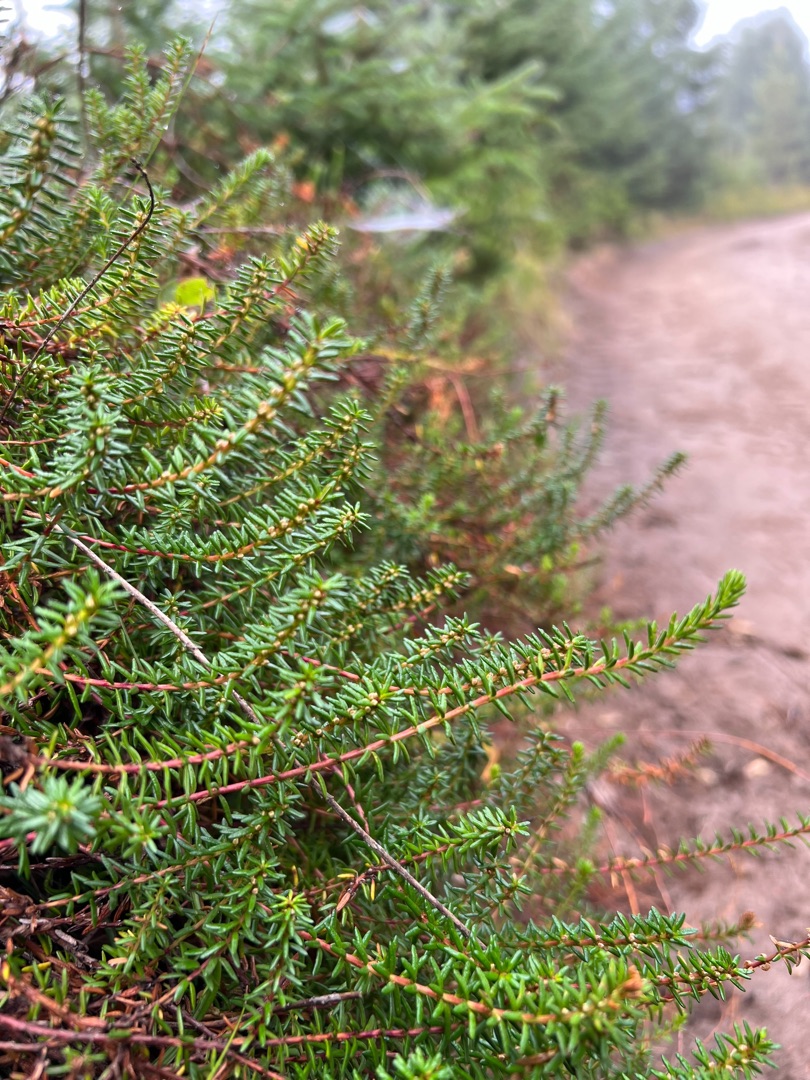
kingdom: Plantae
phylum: Tracheophyta
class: Magnoliopsida
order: Ericales
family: Ericaceae
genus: Empetrum
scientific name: Empetrum nigrum
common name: Revling
